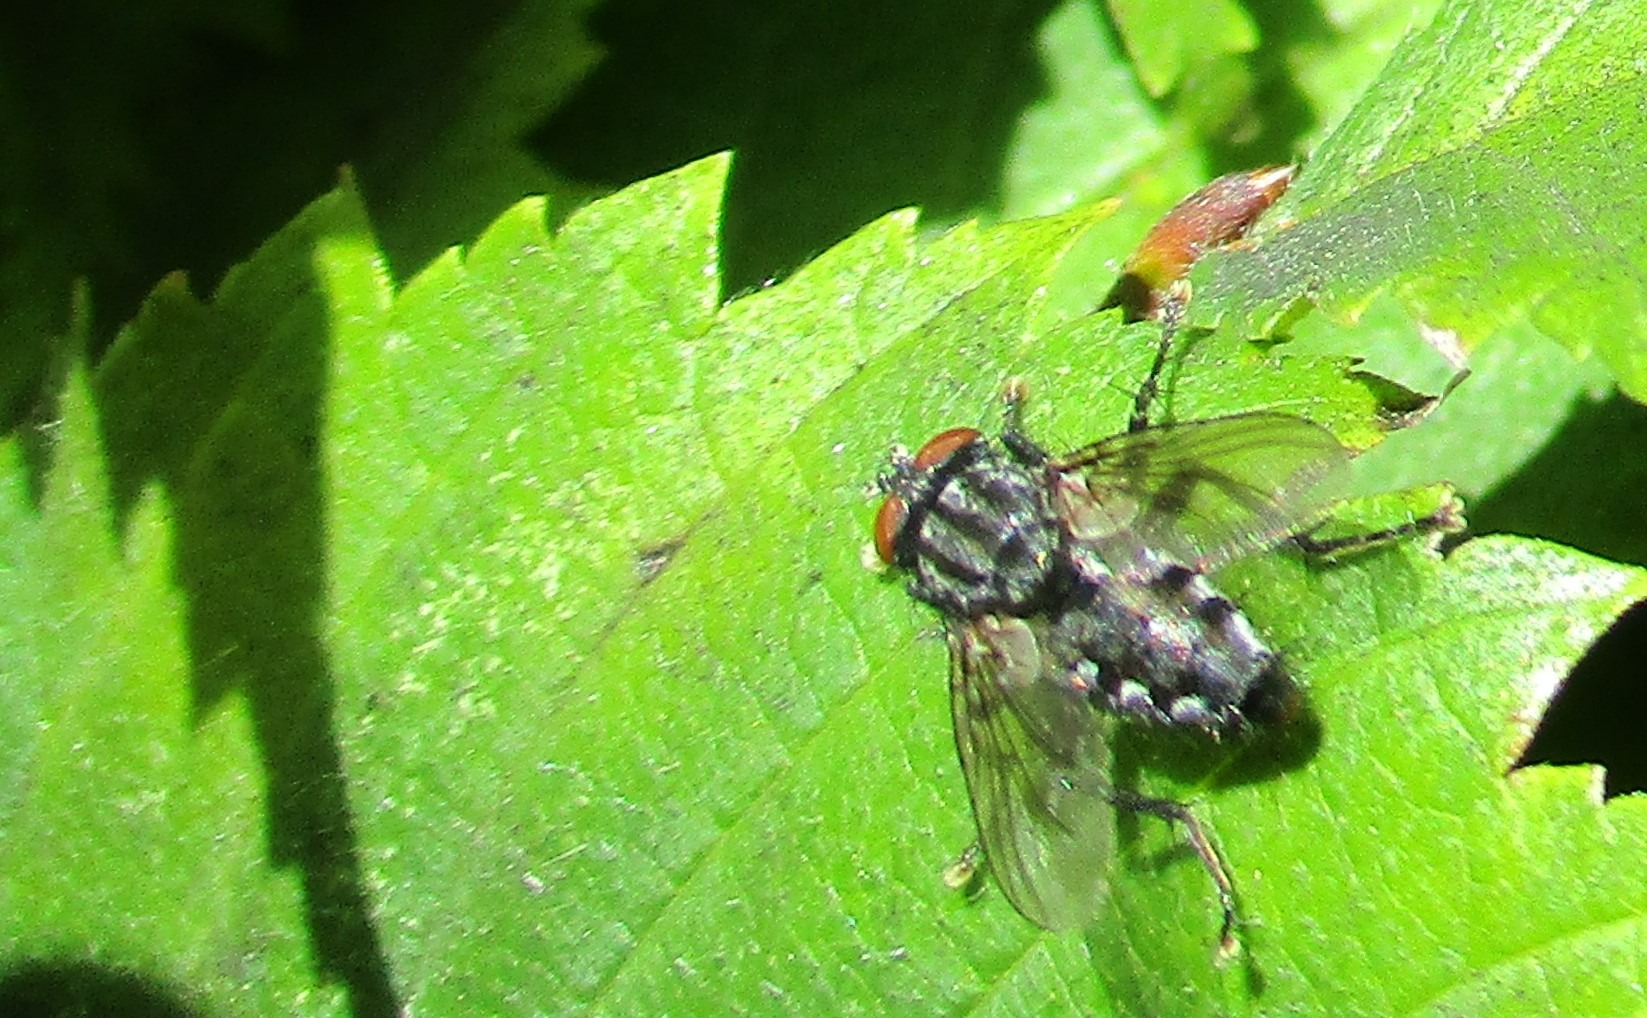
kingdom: Animalia
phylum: Arthropoda
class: Insecta
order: Diptera
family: Sarcophagidae
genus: Sarcophaga
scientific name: Sarcophaga
